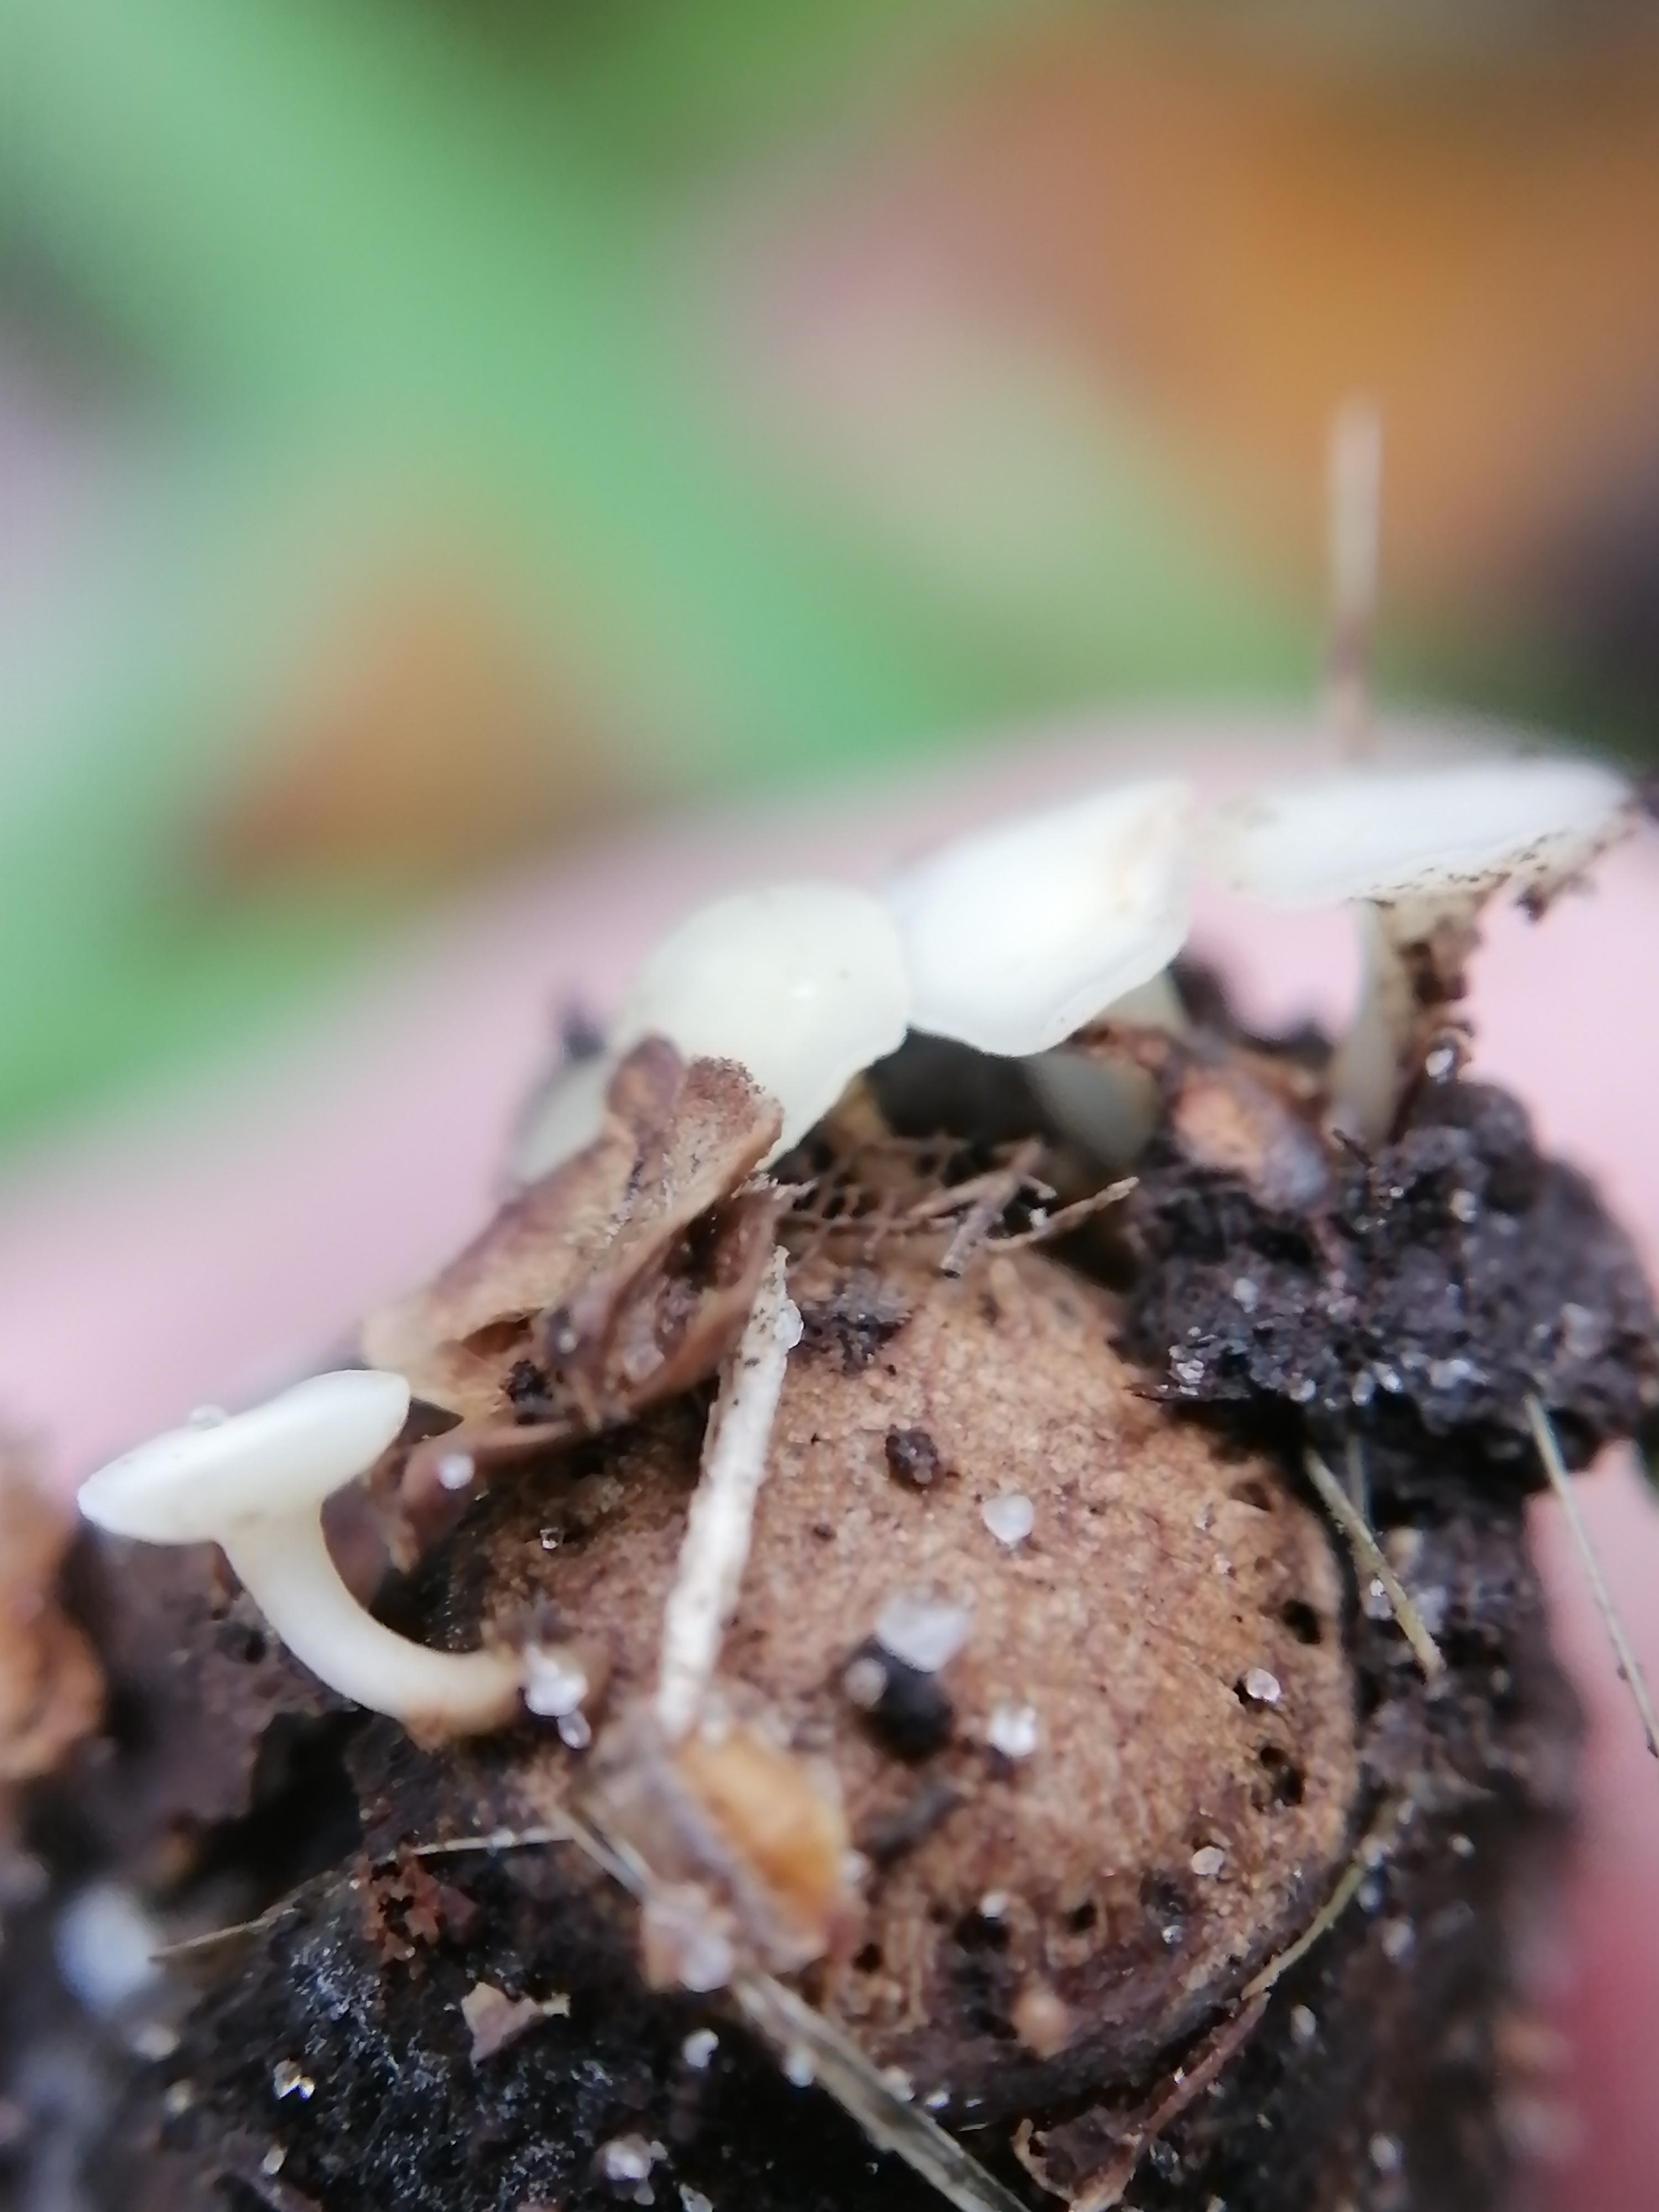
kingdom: Fungi
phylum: Ascomycota
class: Leotiomycetes
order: Helotiales
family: Helotiaceae
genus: Hymenoscyphus
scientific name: Hymenoscyphus rokebyensis
